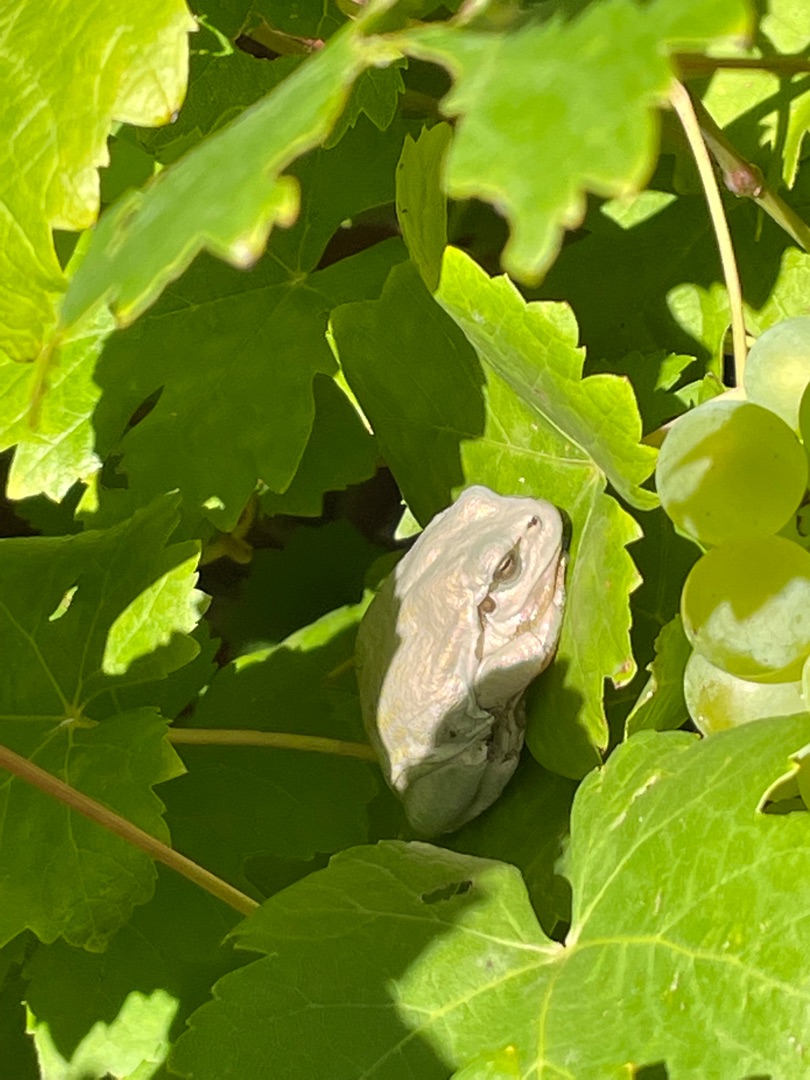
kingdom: Animalia
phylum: Chordata
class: Amphibia
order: Anura
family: Hylidae
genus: Hyla
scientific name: Hyla arborea
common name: Løvfrø
